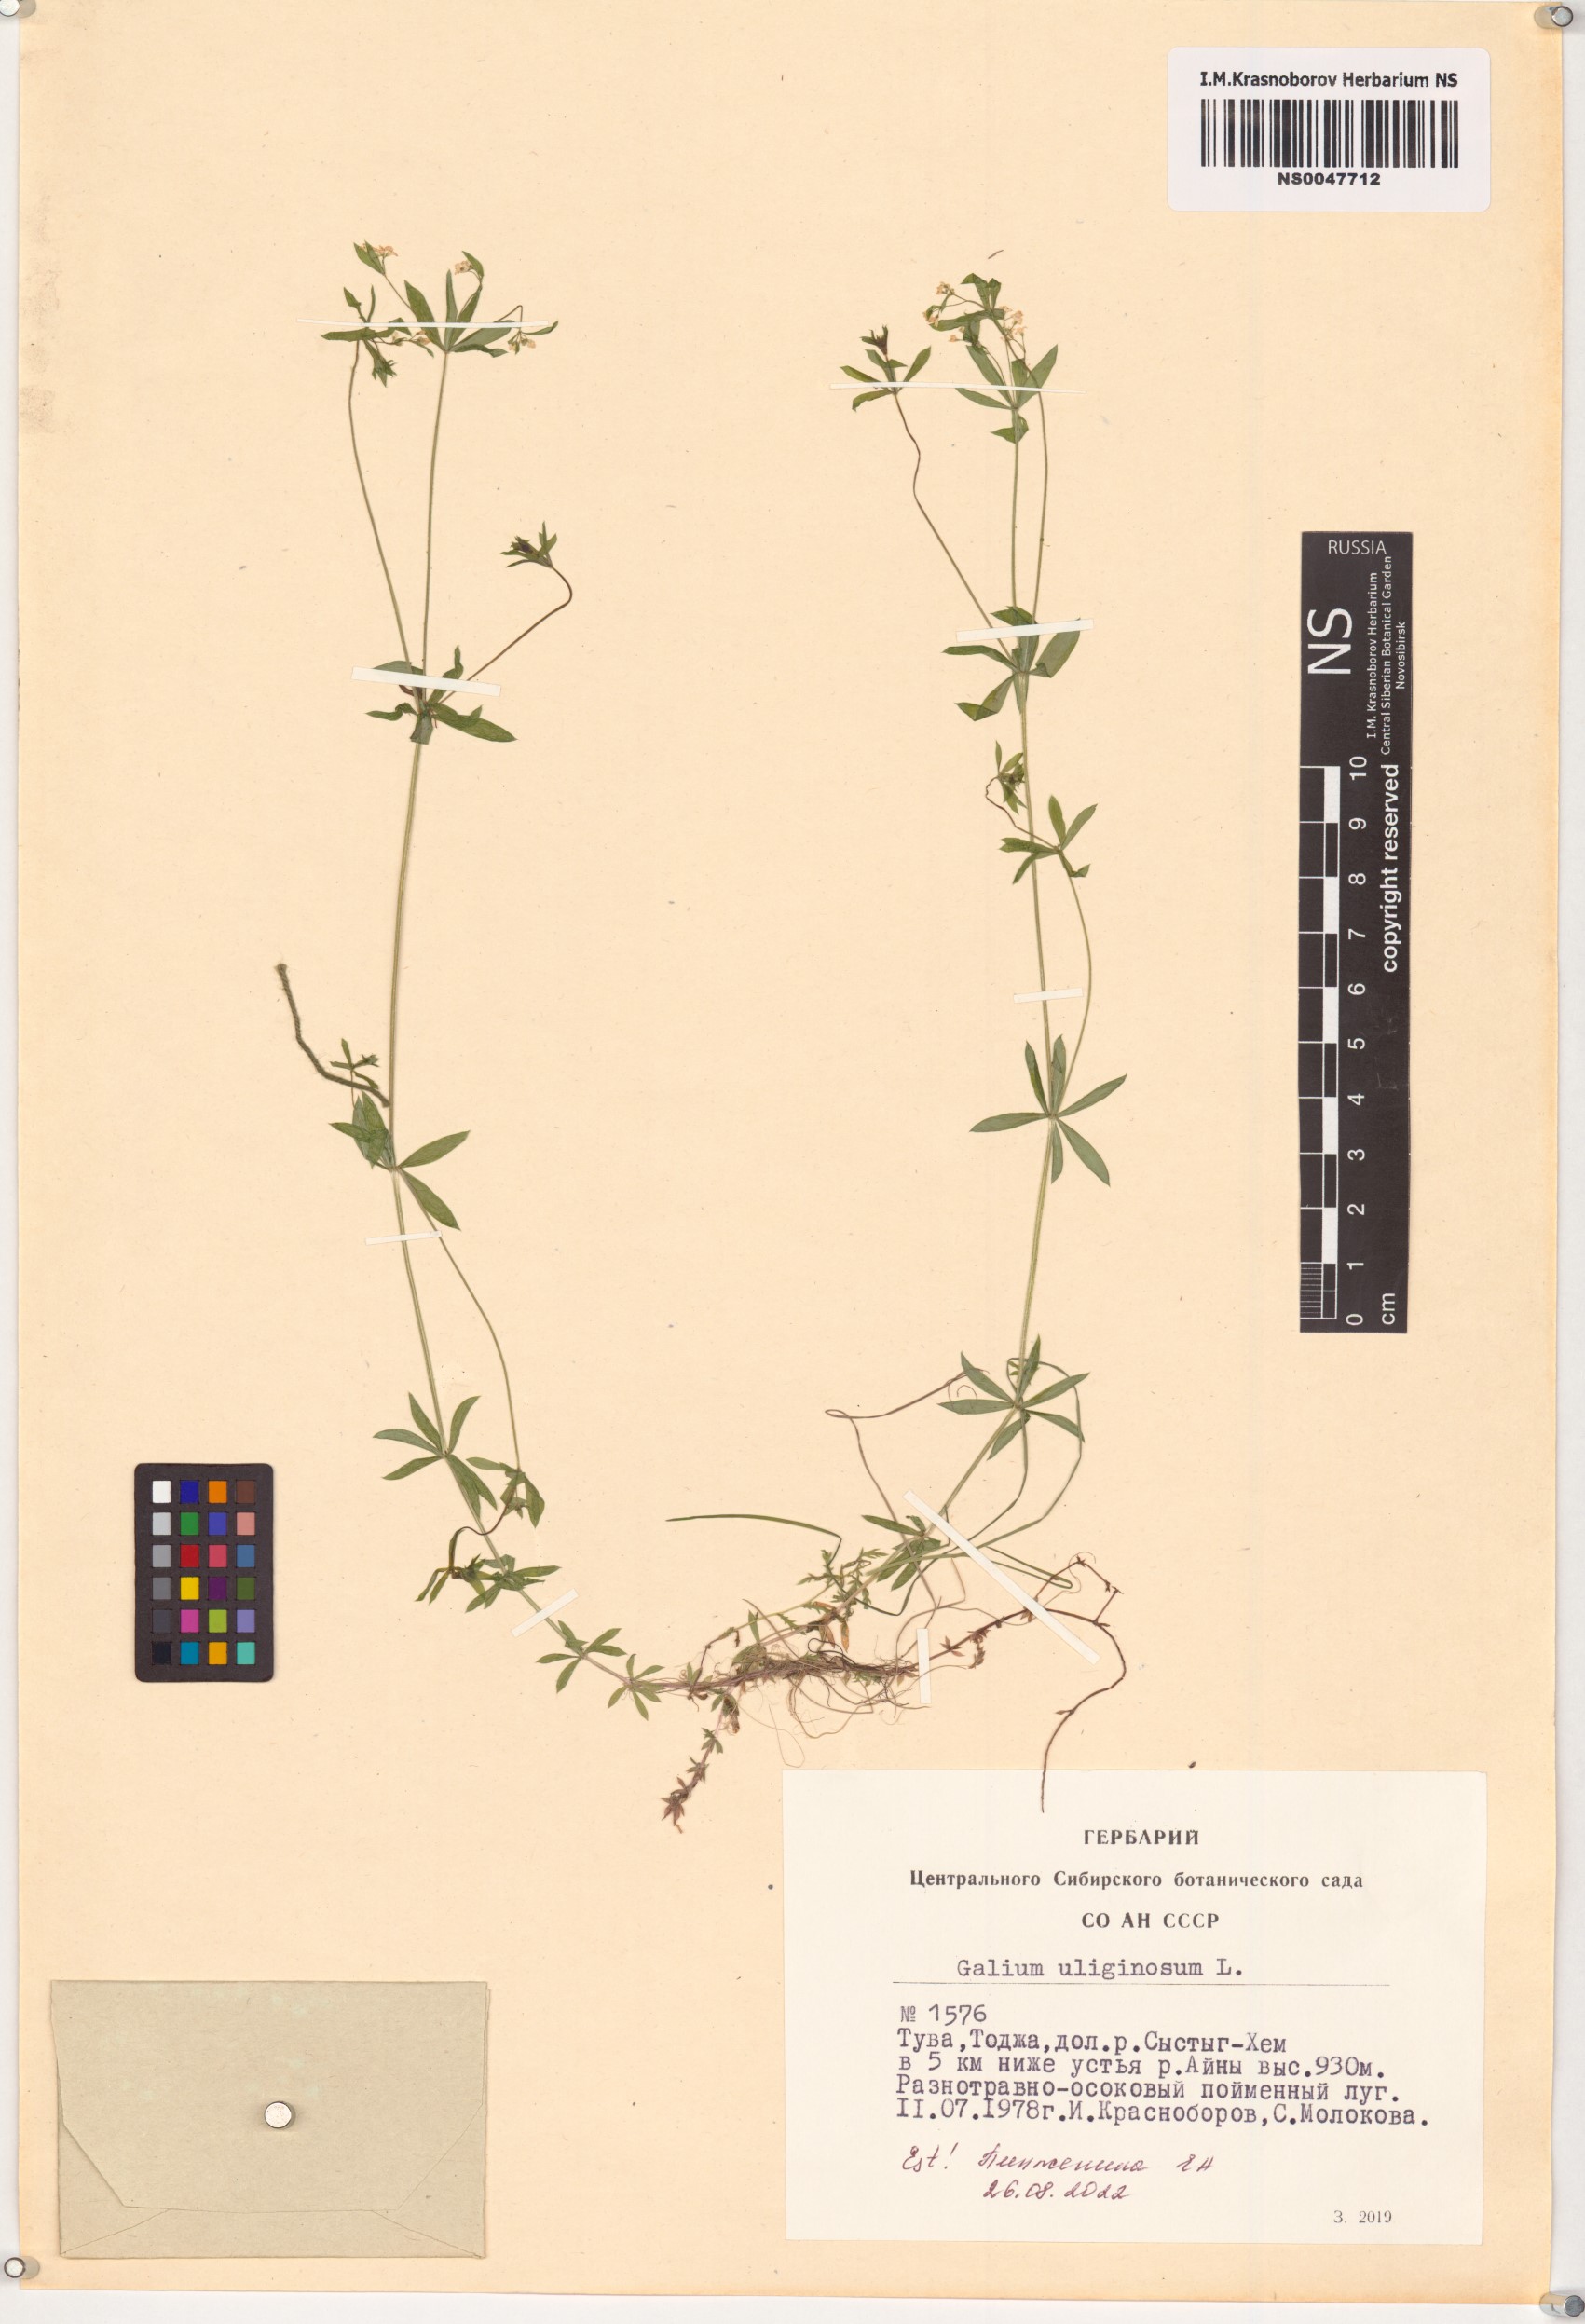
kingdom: Plantae
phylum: Tracheophyta
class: Magnoliopsida
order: Gentianales
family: Rubiaceae
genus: Galium
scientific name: Galium uliginosum
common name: Fen bedstraw
